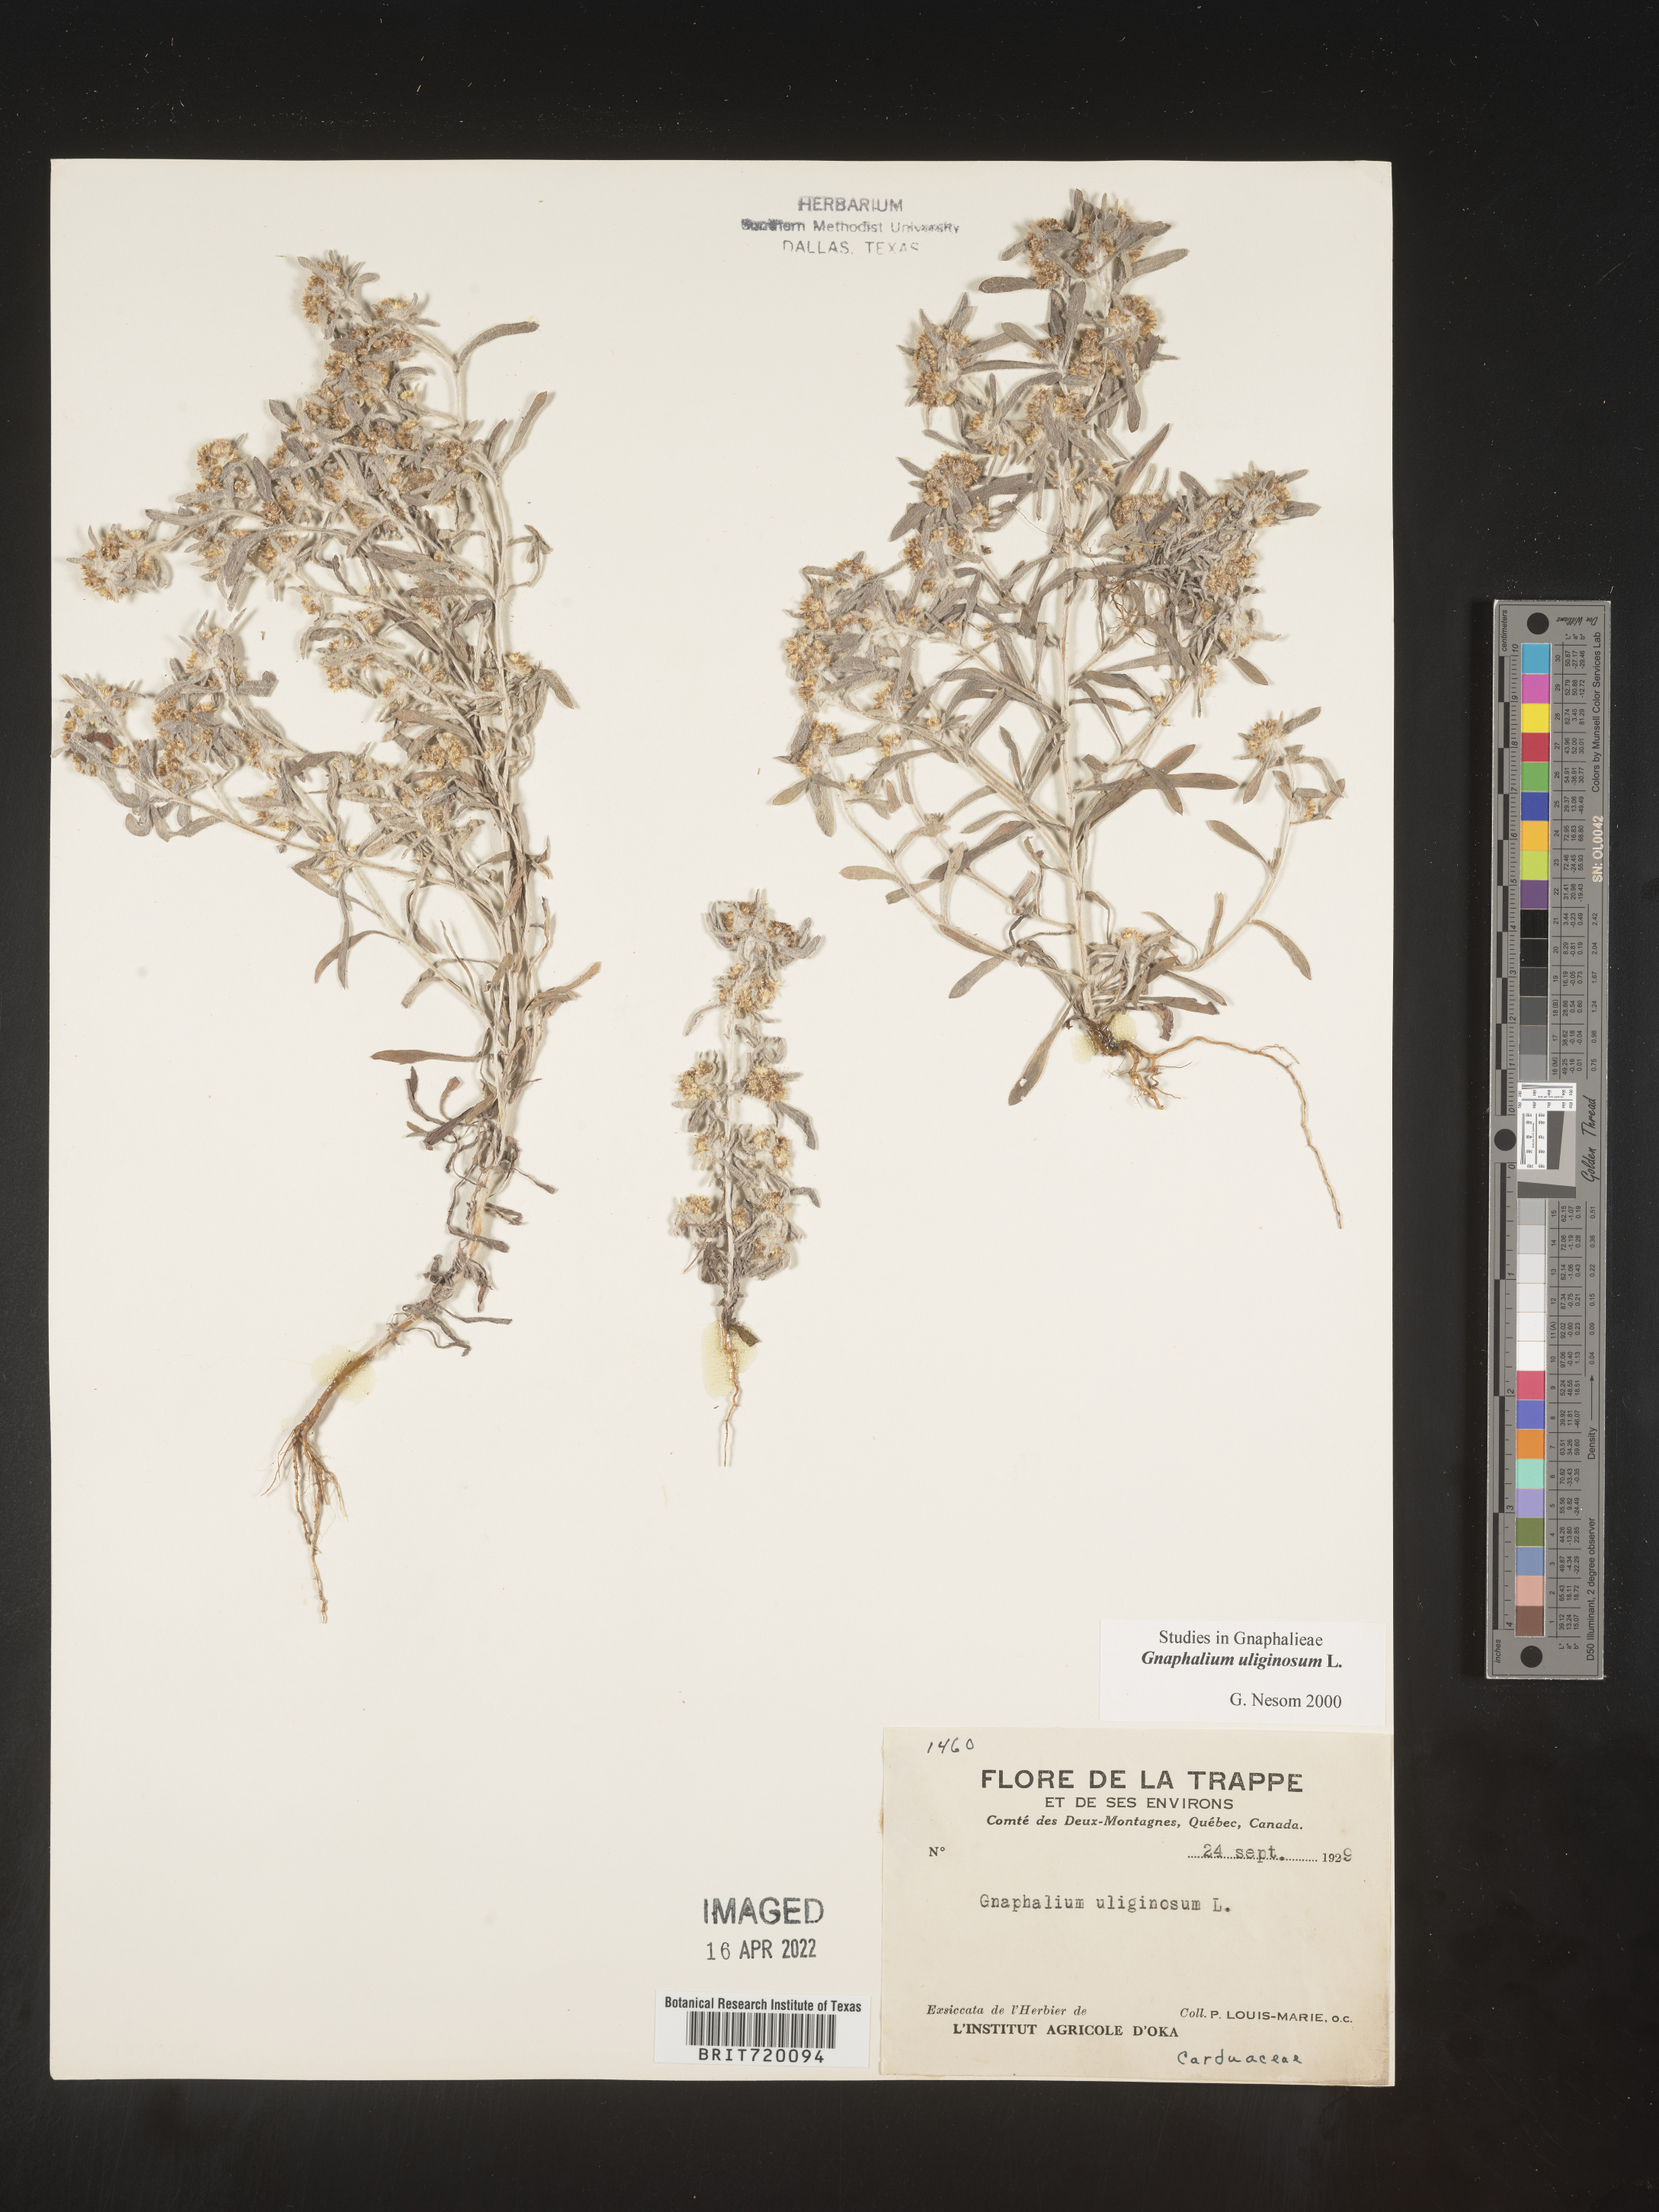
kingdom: Plantae
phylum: Tracheophyta
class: Magnoliopsida
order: Asterales
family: Asteraceae
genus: Gnaphalium
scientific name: Gnaphalium uliginosum
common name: Marsh cudweed
